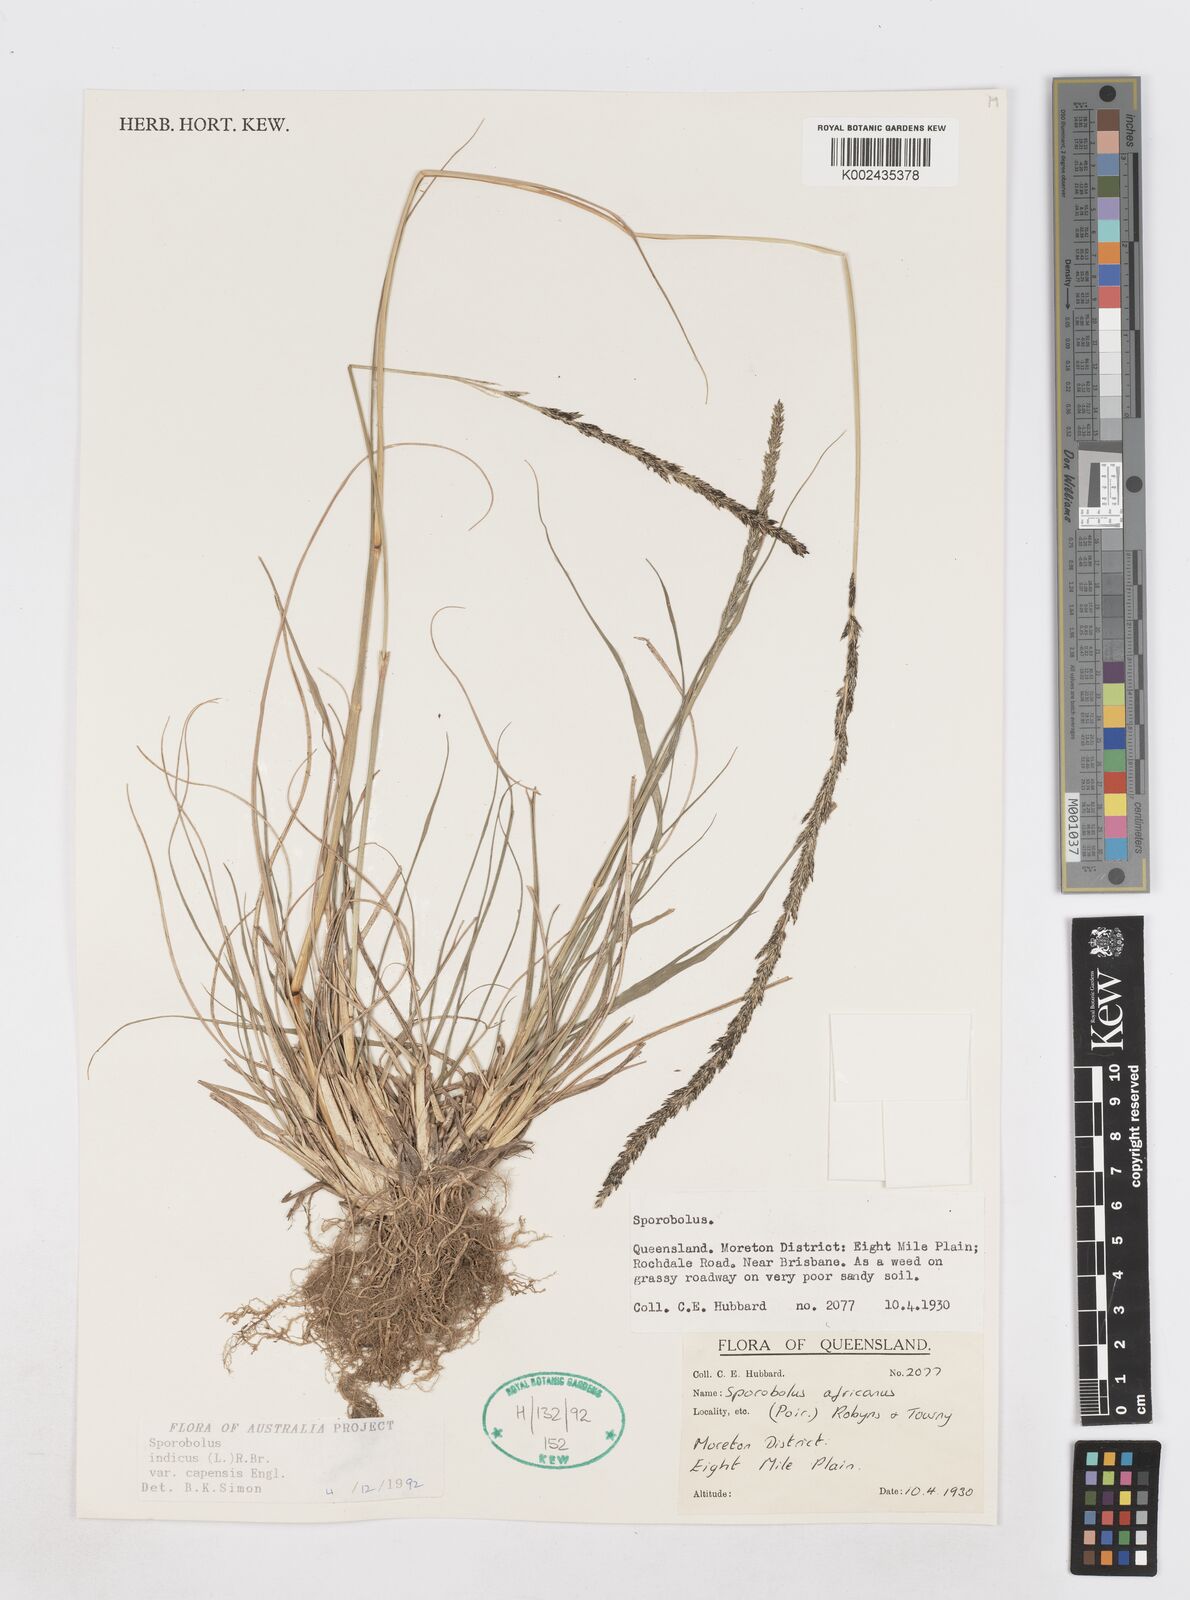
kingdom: Plantae
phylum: Tracheophyta
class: Liliopsida
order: Poales
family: Poaceae
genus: Sporobolus
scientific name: Sporobolus africanus
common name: African dropseed
